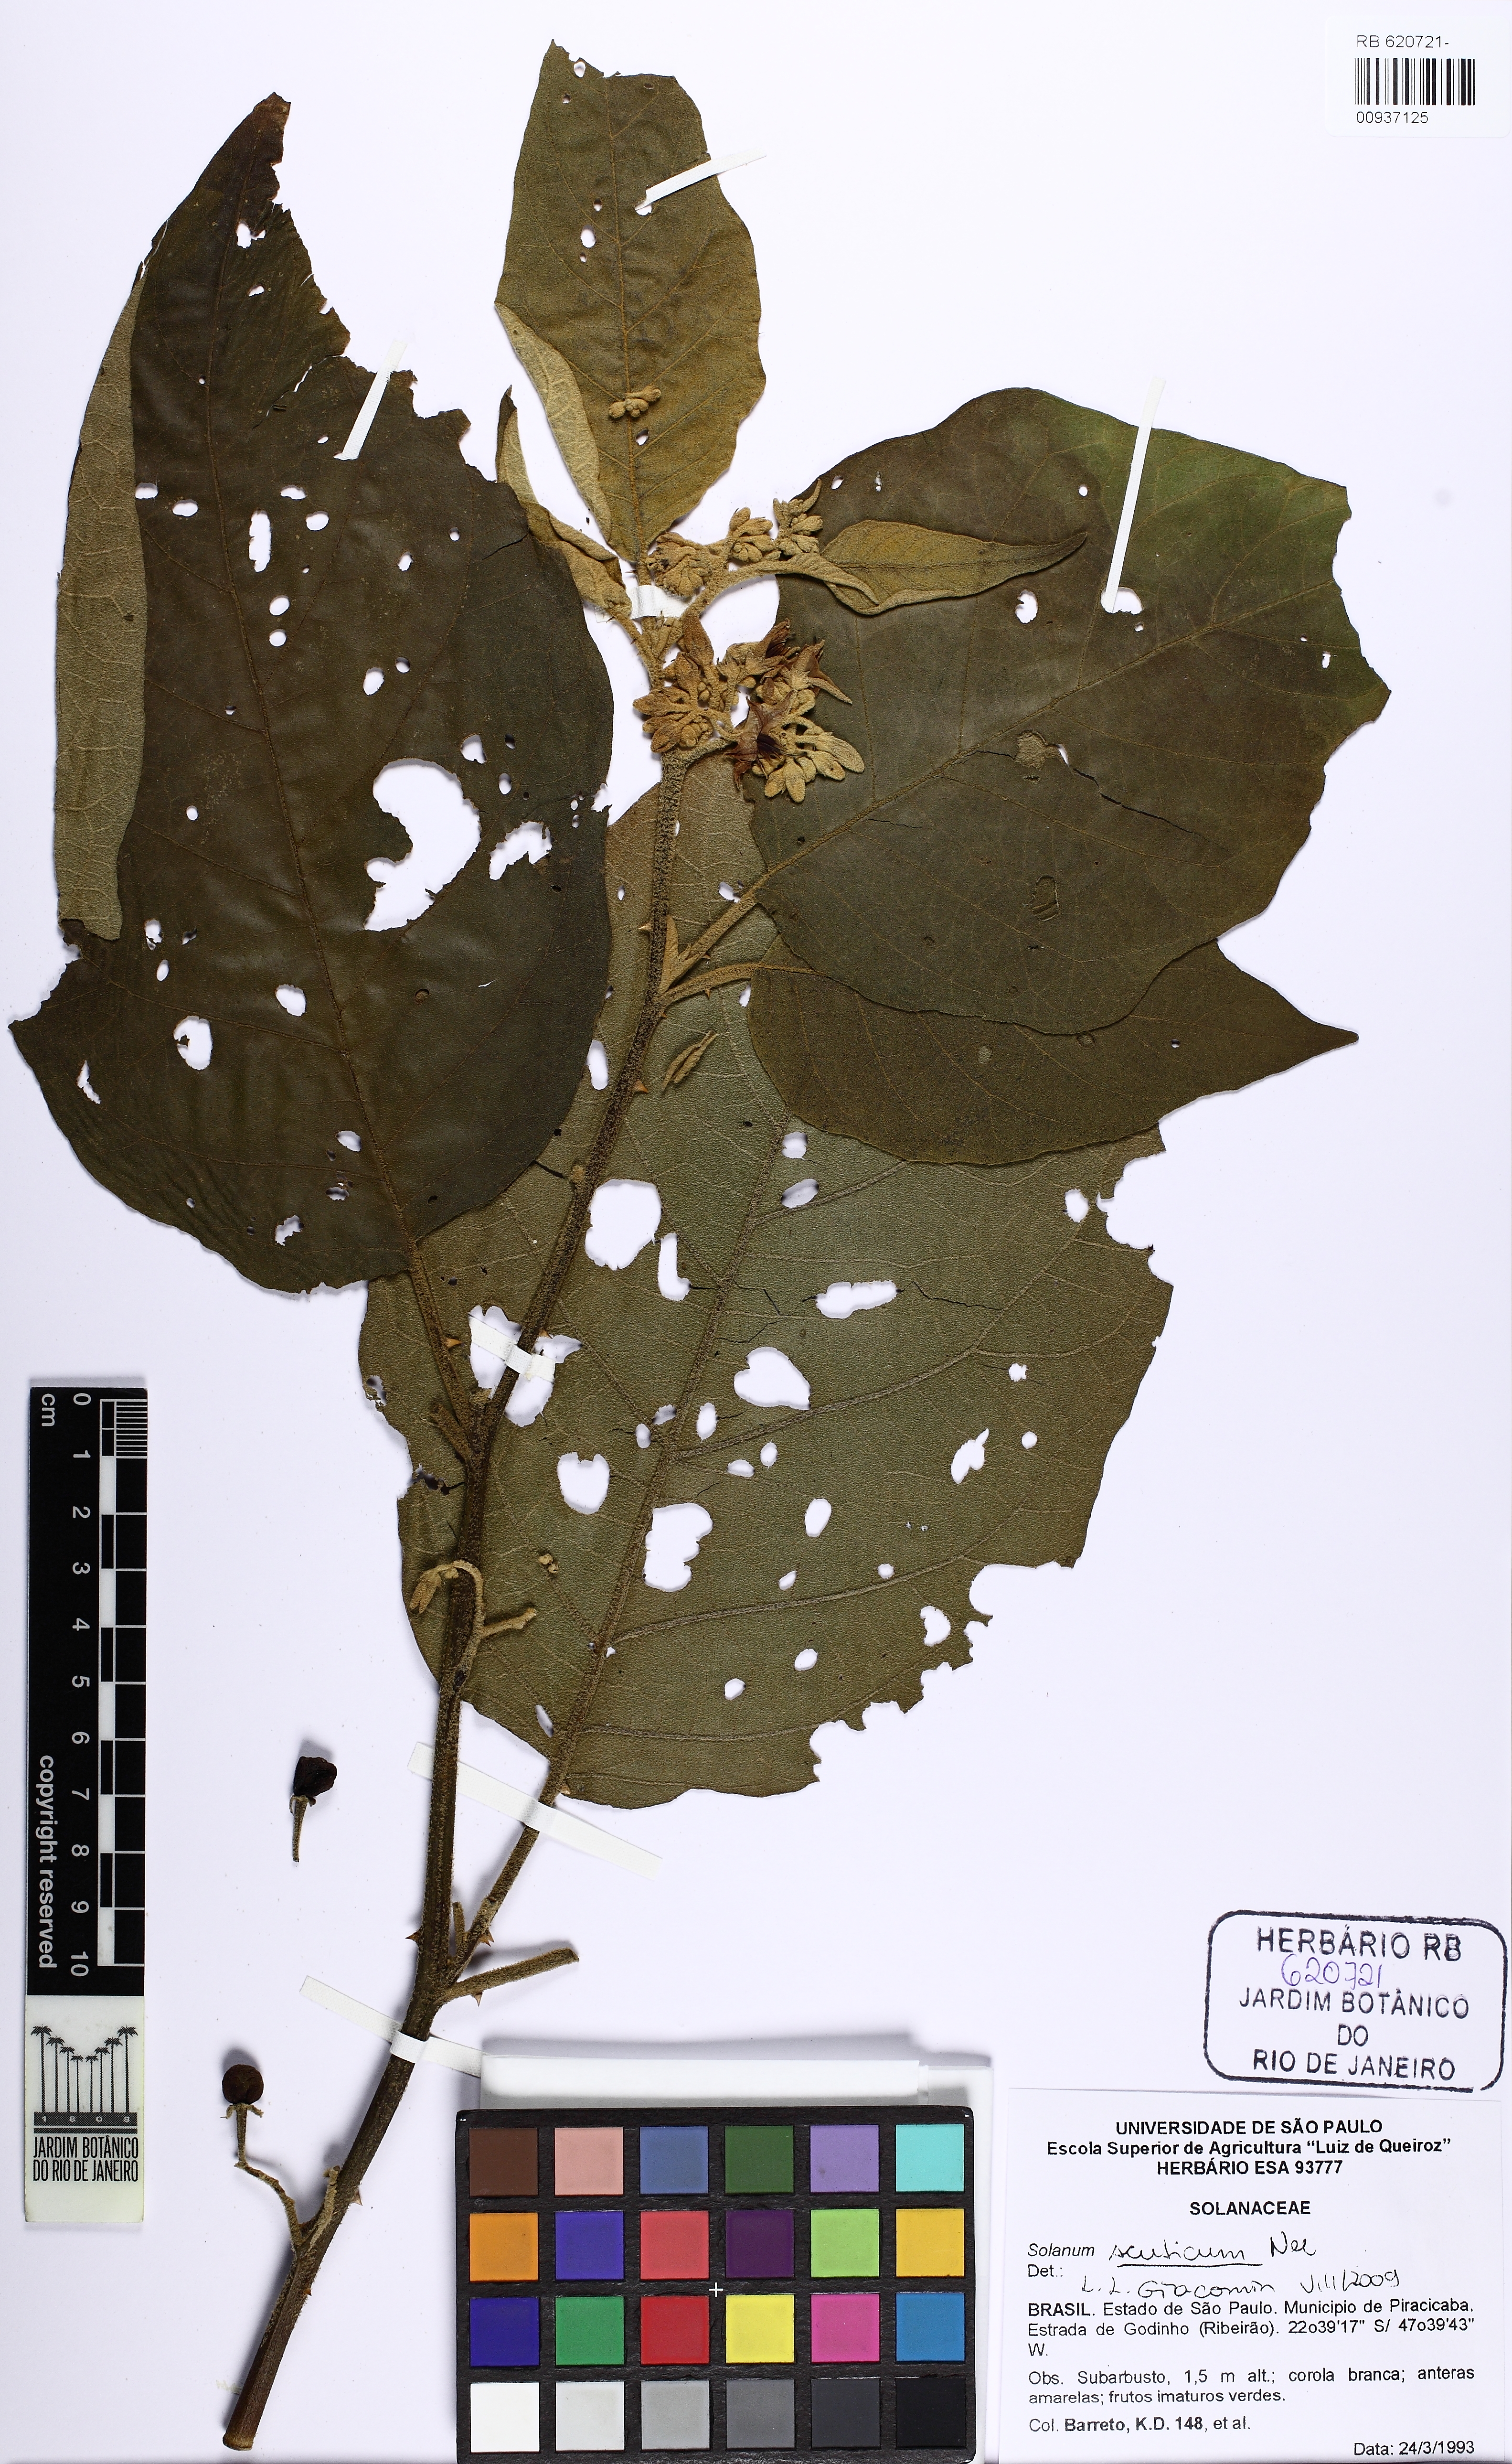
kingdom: Plantae
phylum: Tracheophyta
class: Magnoliopsida
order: Solanales
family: Solanaceae
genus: Solanum
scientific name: Solanum scuticum
